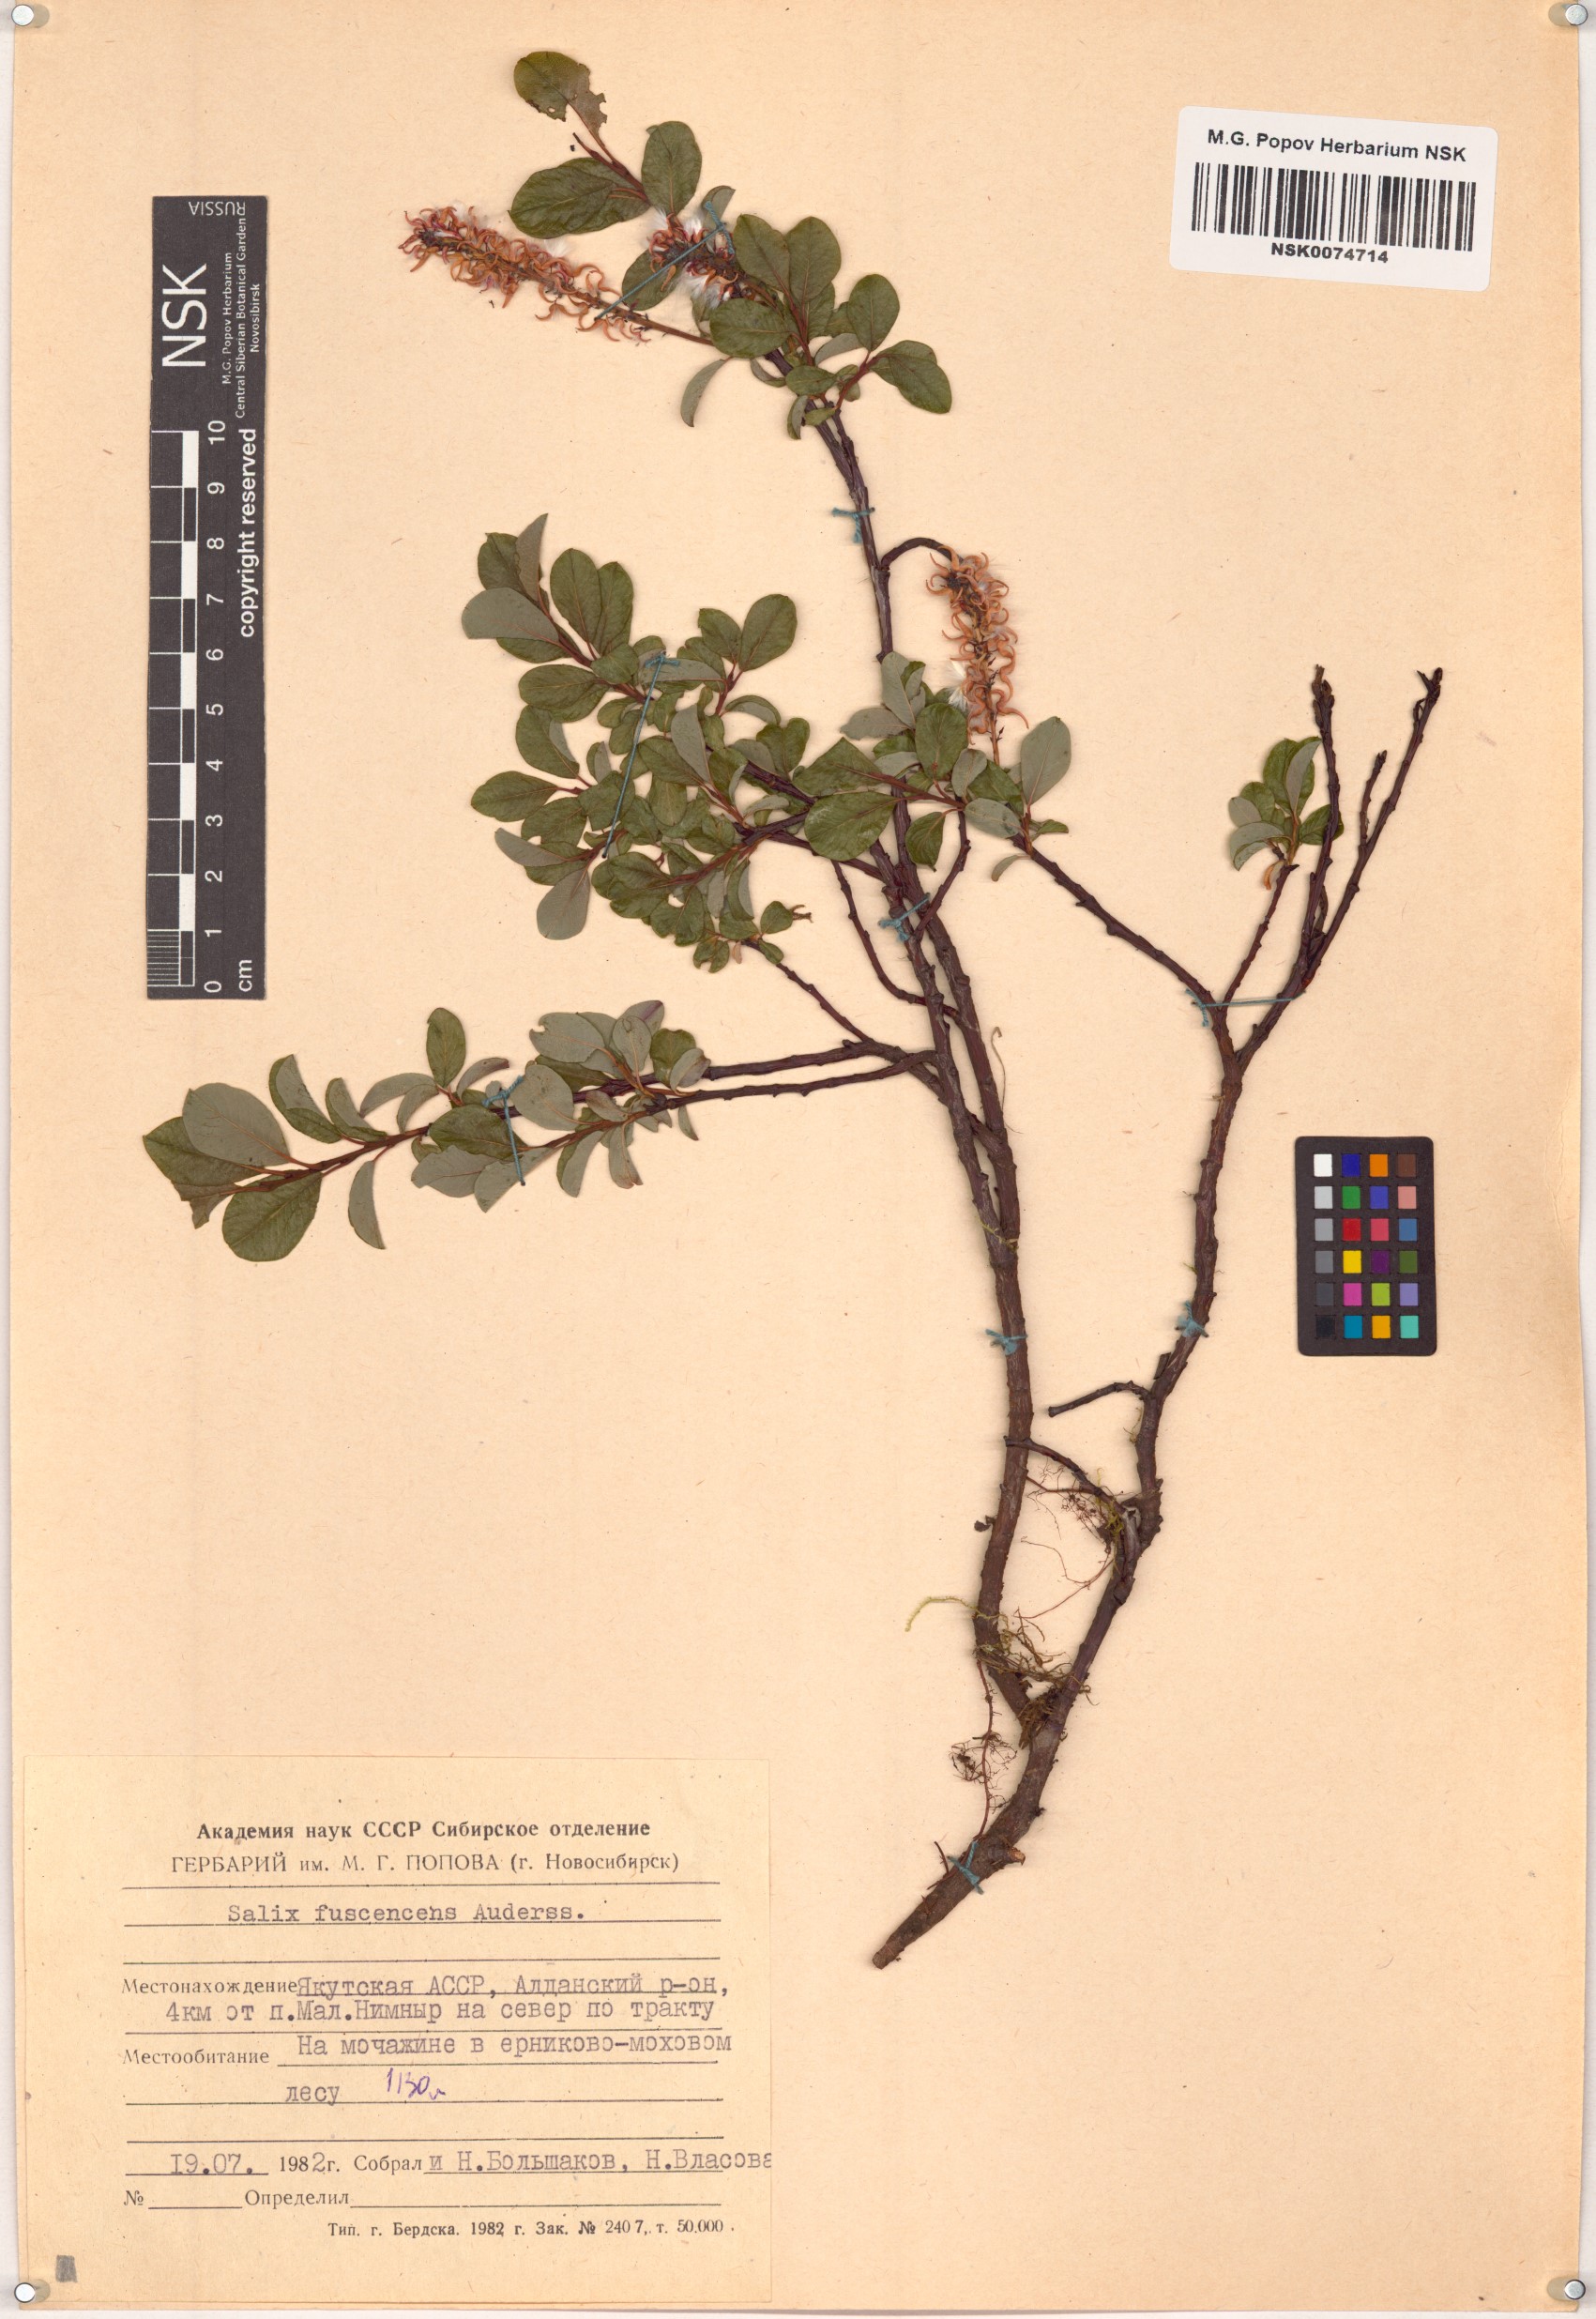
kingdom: Plantae
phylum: Tracheophyta
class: Magnoliopsida
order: Malpighiales
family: Salicaceae
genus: Salix
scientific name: Salix fuscescens
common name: Brownish willow
